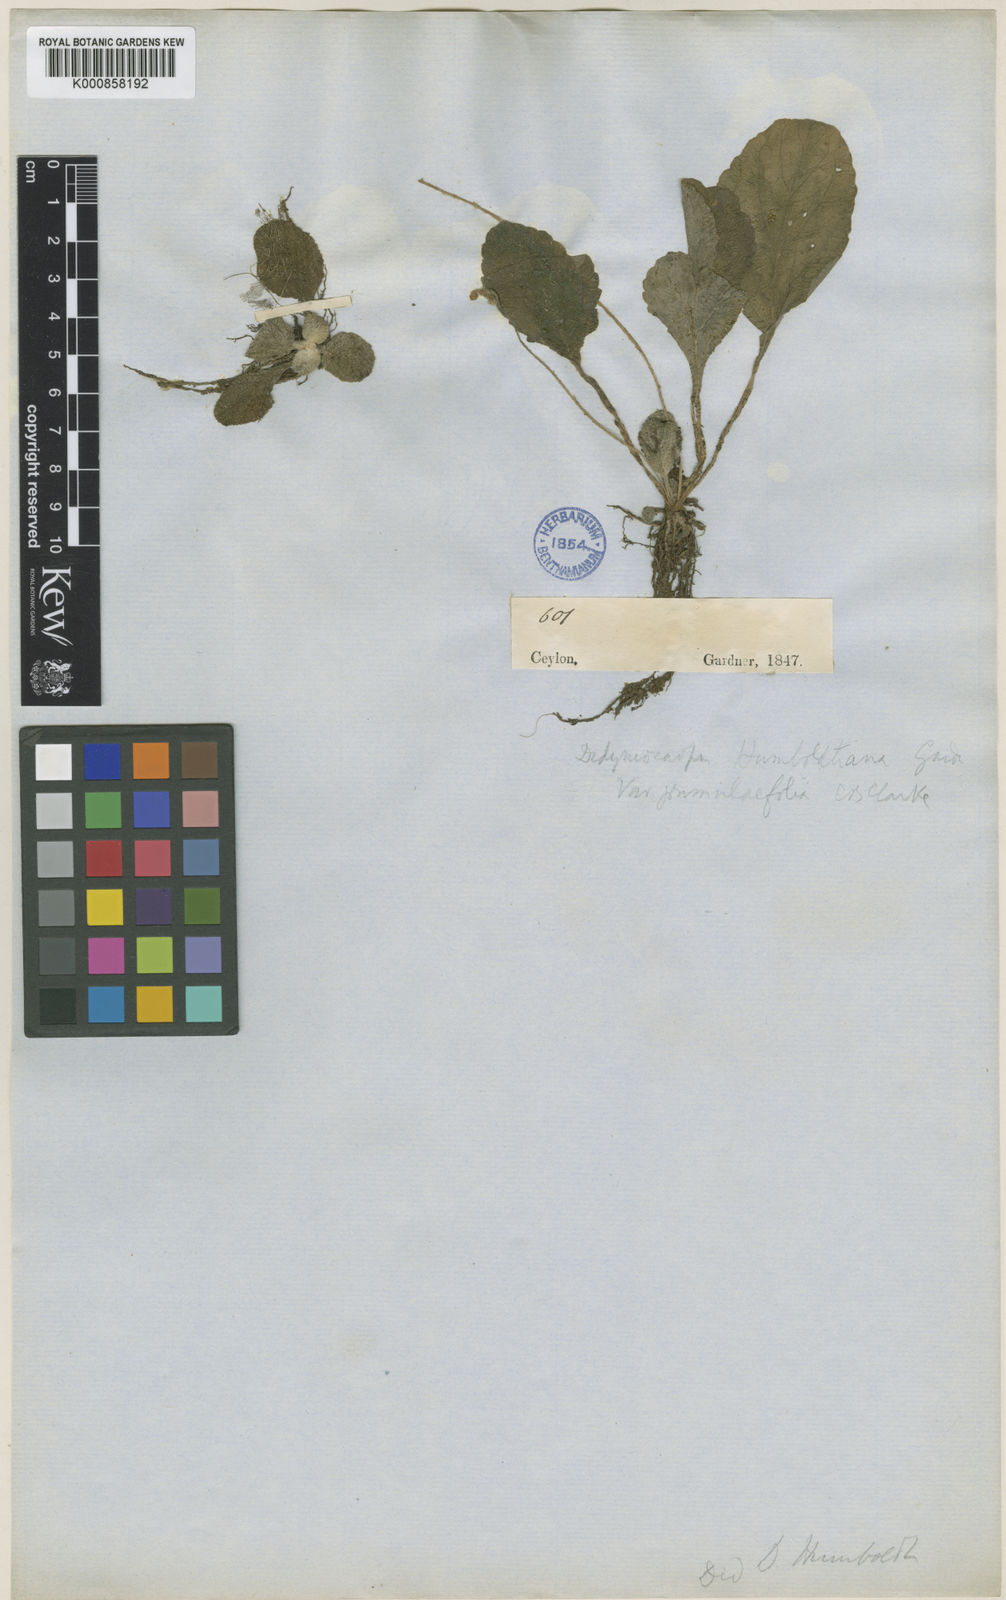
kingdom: Plantae
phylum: Tracheophyta
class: Magnoliopsida
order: Lamiales
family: Gesneriaceae
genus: Henckelia
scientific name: Henckelia humboldtiana
